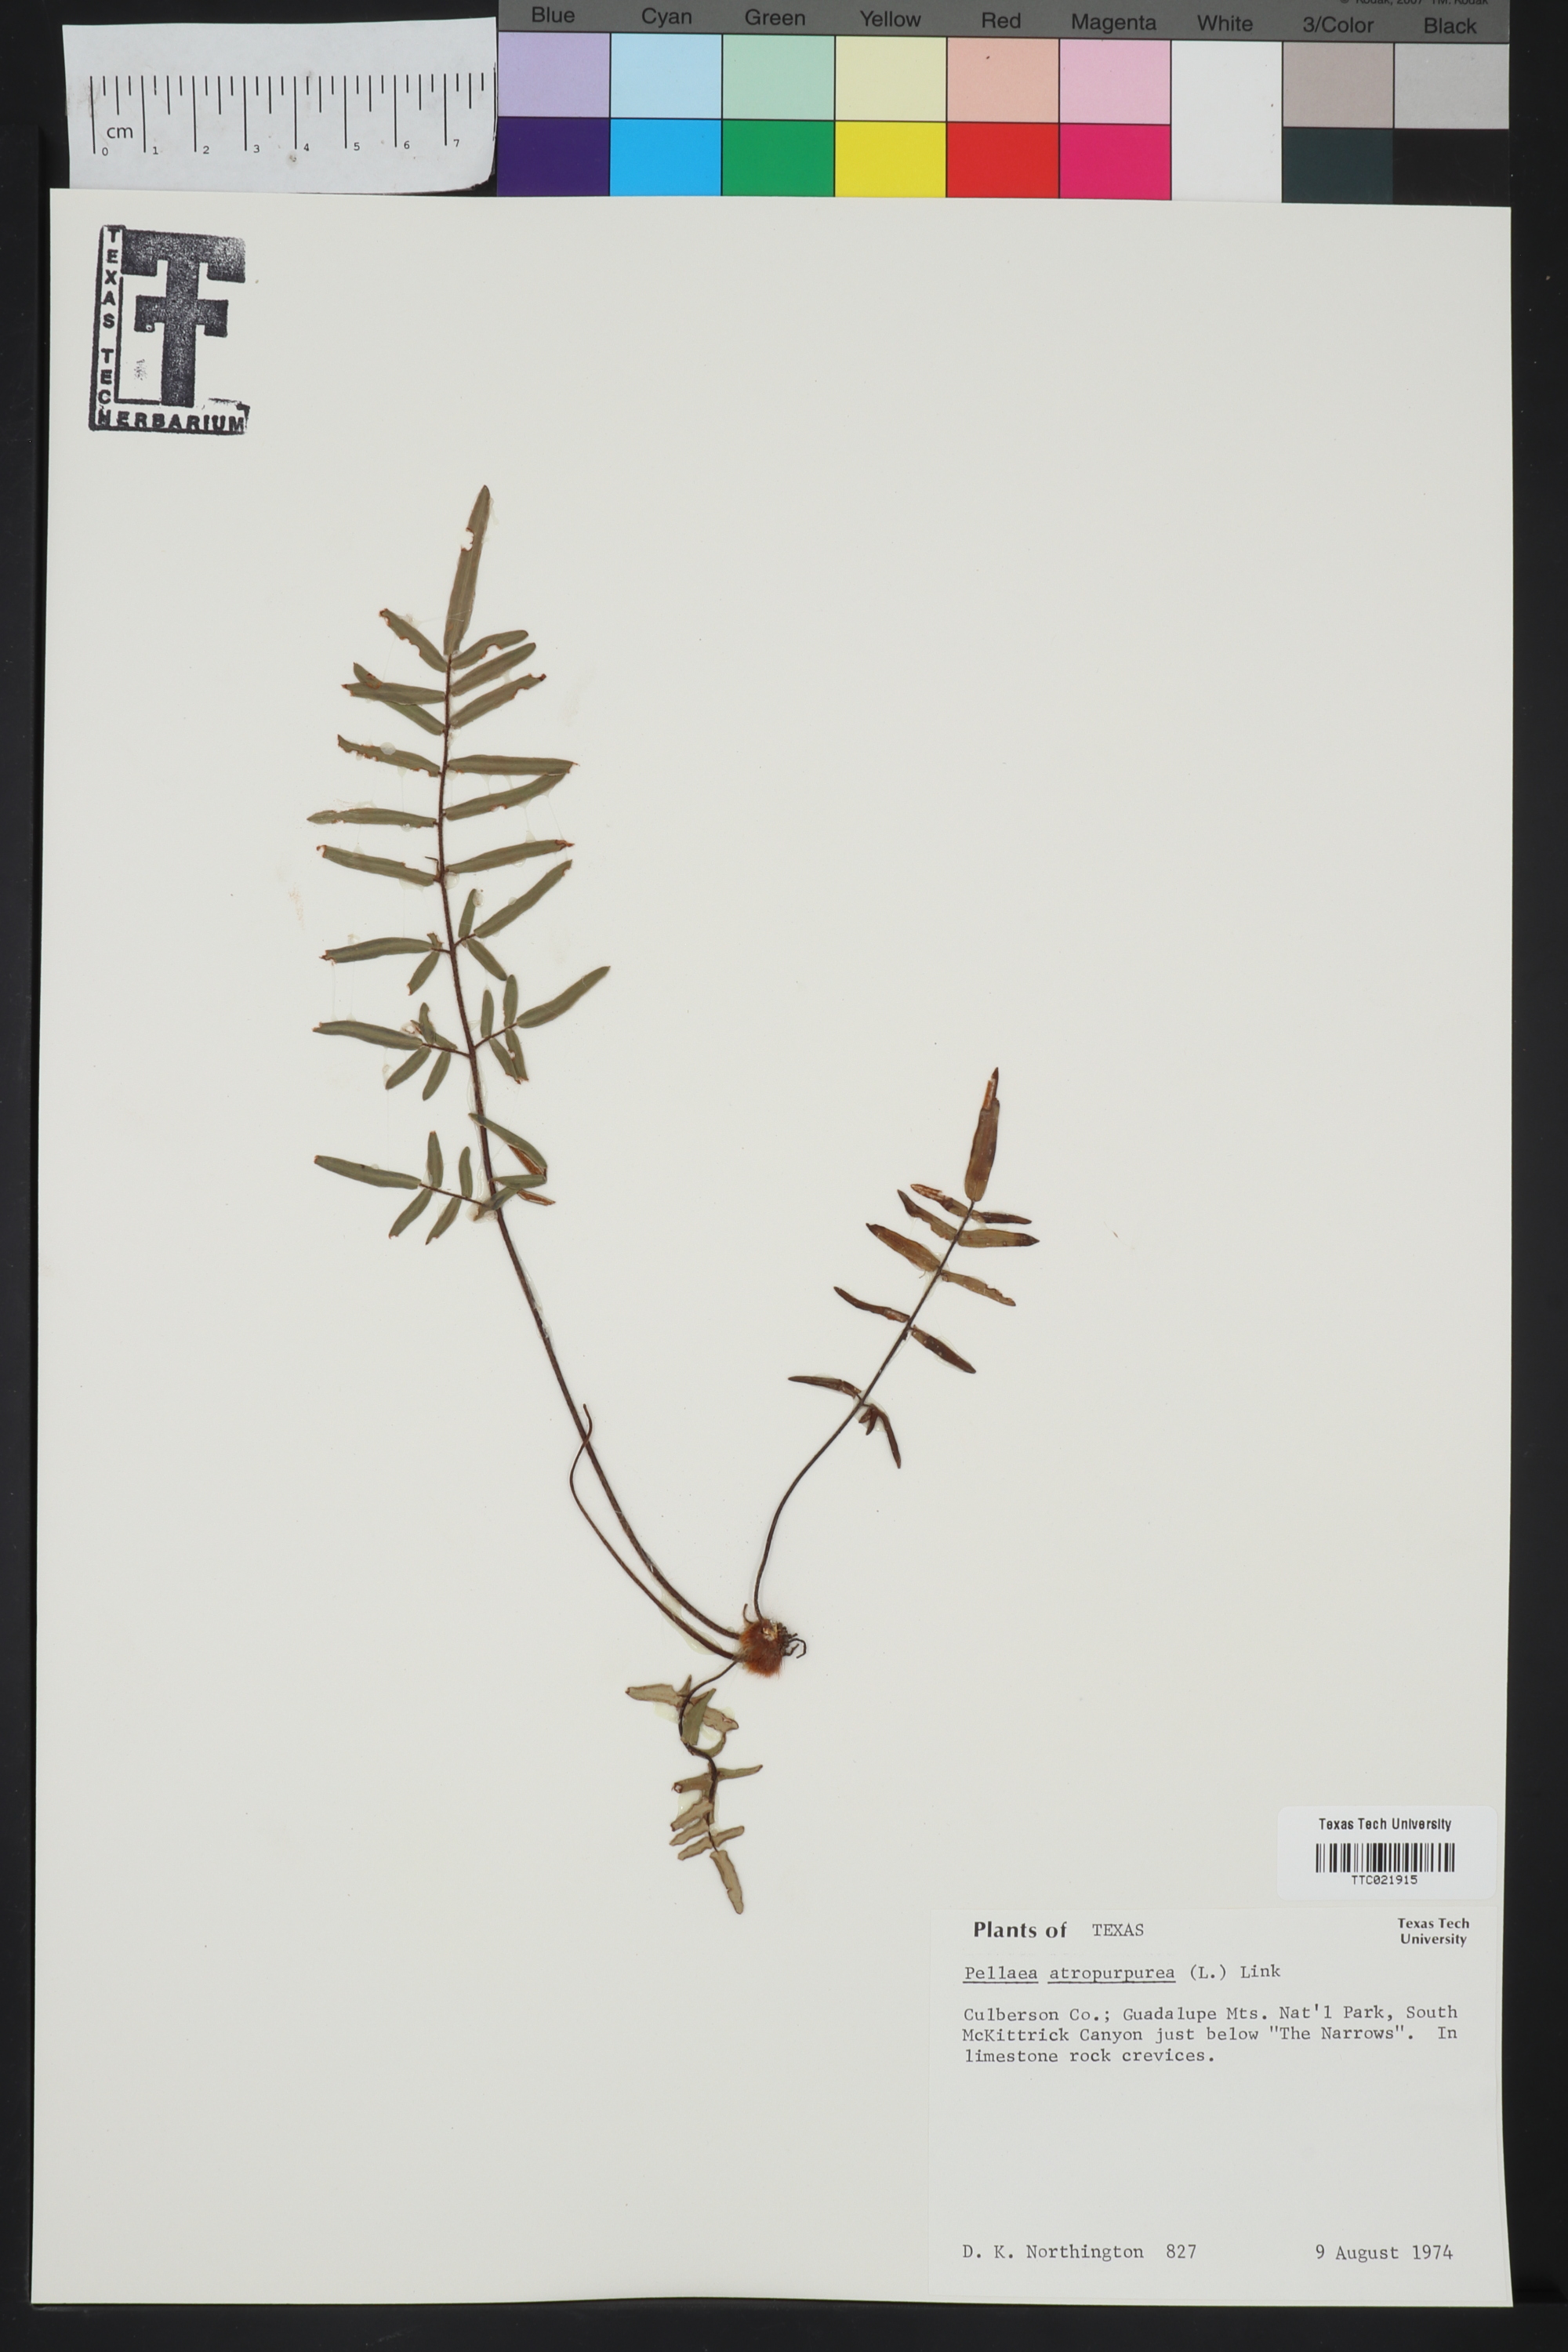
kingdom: Plantae
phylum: Tracheophyta
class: Polypodiopsida
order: Polypodiales
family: Pteridaceae
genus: Pellaea
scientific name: Pellaea atropurpurea
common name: Hairy cliffbrake
